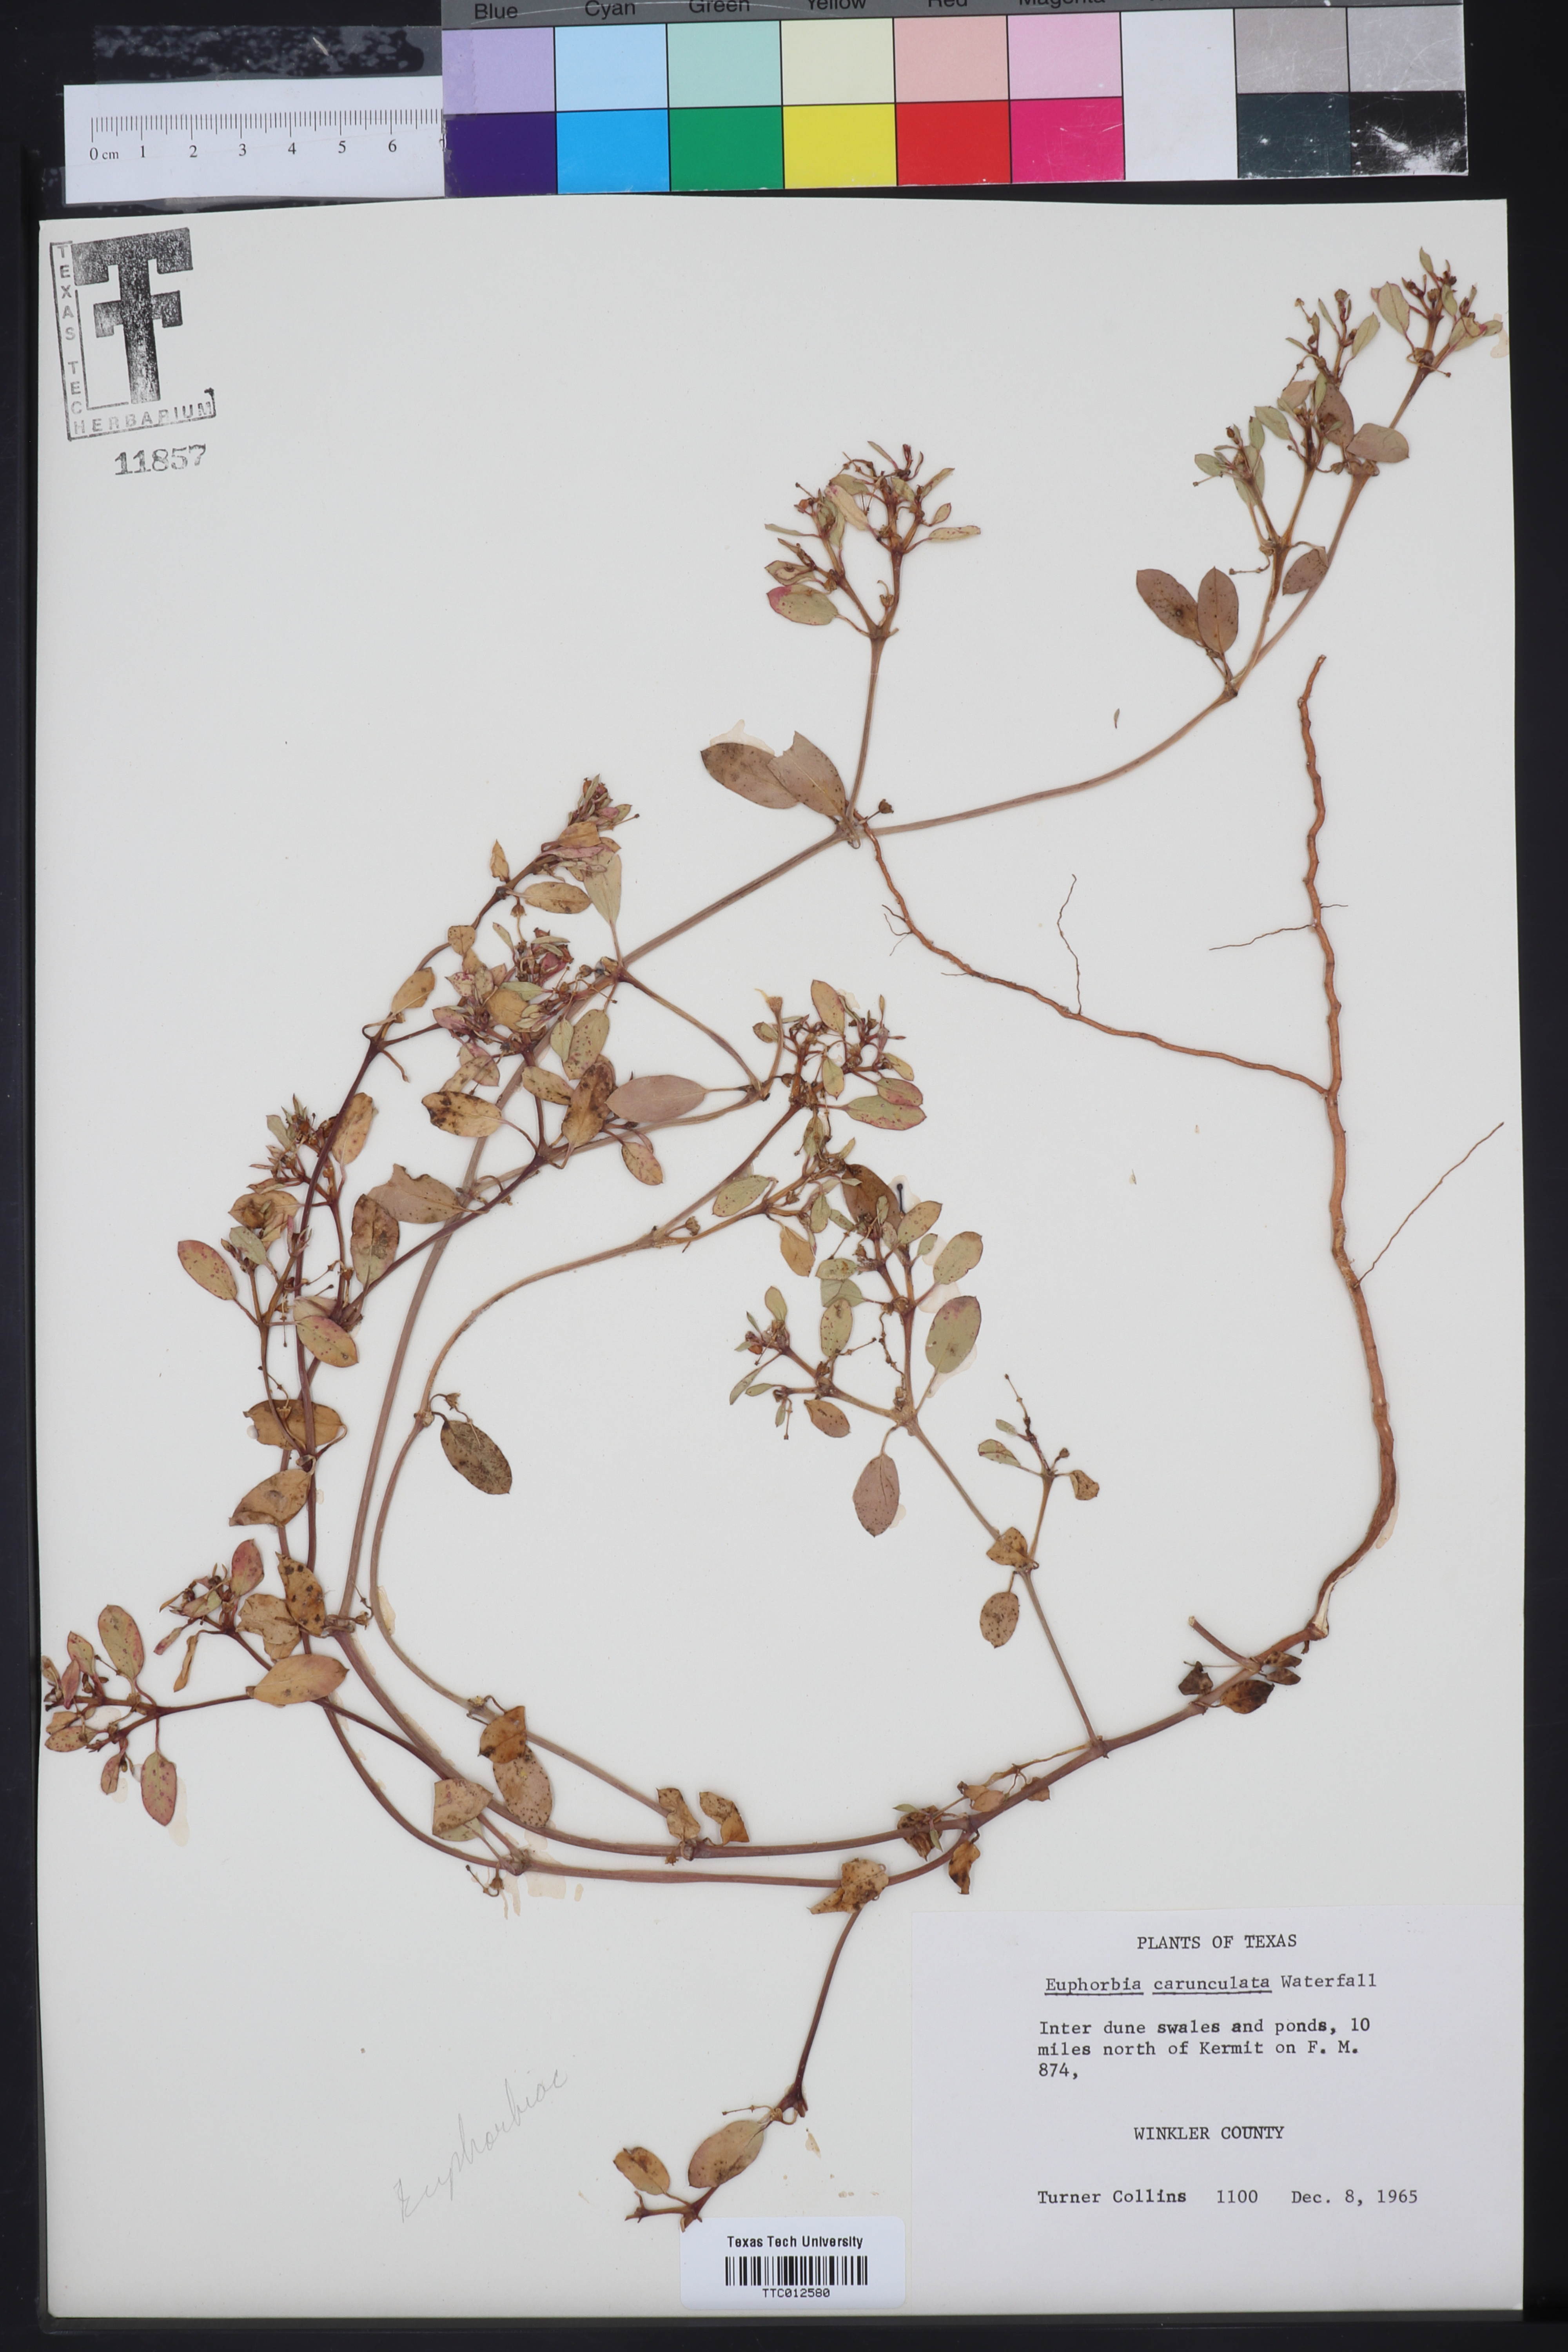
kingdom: Plantae
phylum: Tracheophyta
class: Magnoliopsida
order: Malpighiales
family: Euphorbiaceae
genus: Euphorbia
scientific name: Euphorbia carunculata
